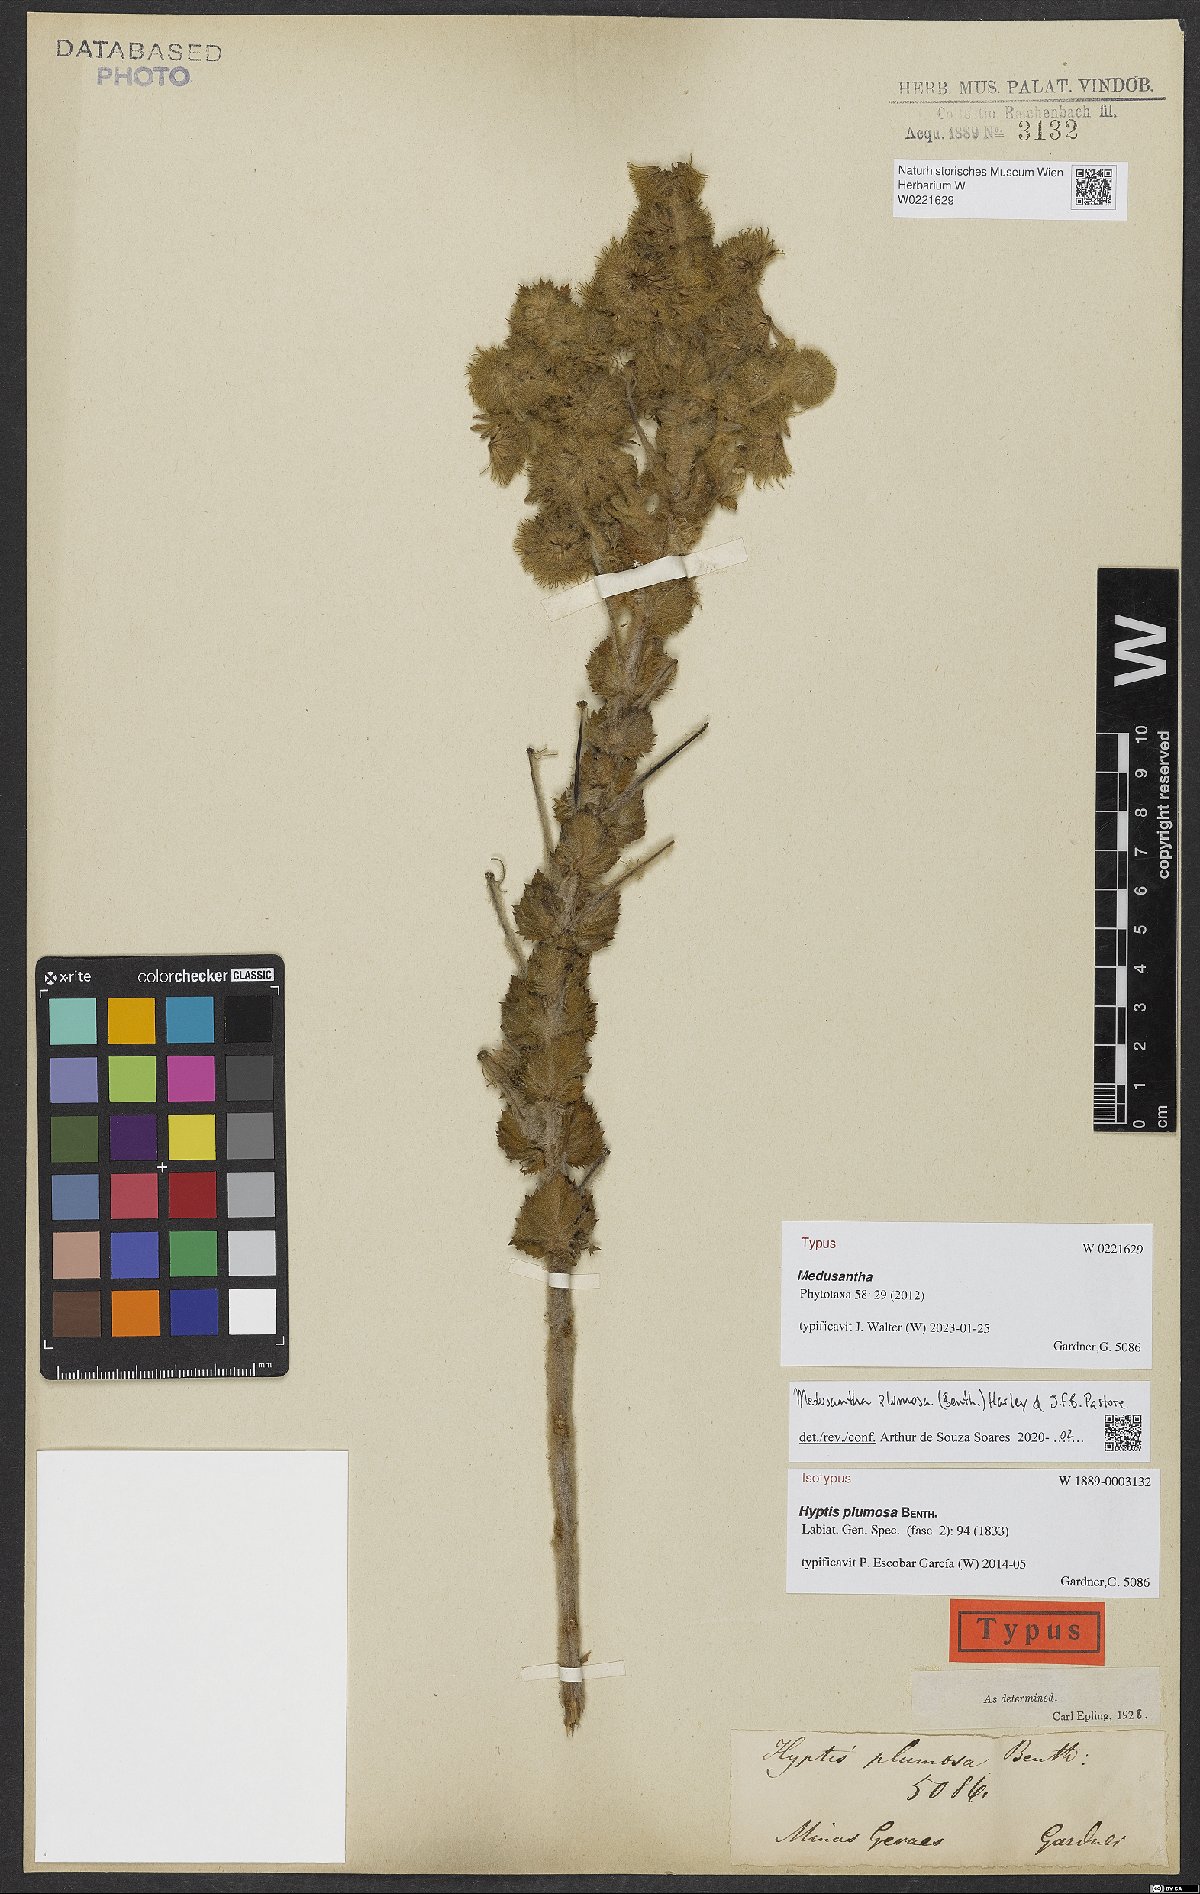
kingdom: Plantae
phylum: Tracheophyta
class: Magnoliopsida
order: Lamiales
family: Lamiaceae
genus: Medusantha
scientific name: Medusantha plumosa
